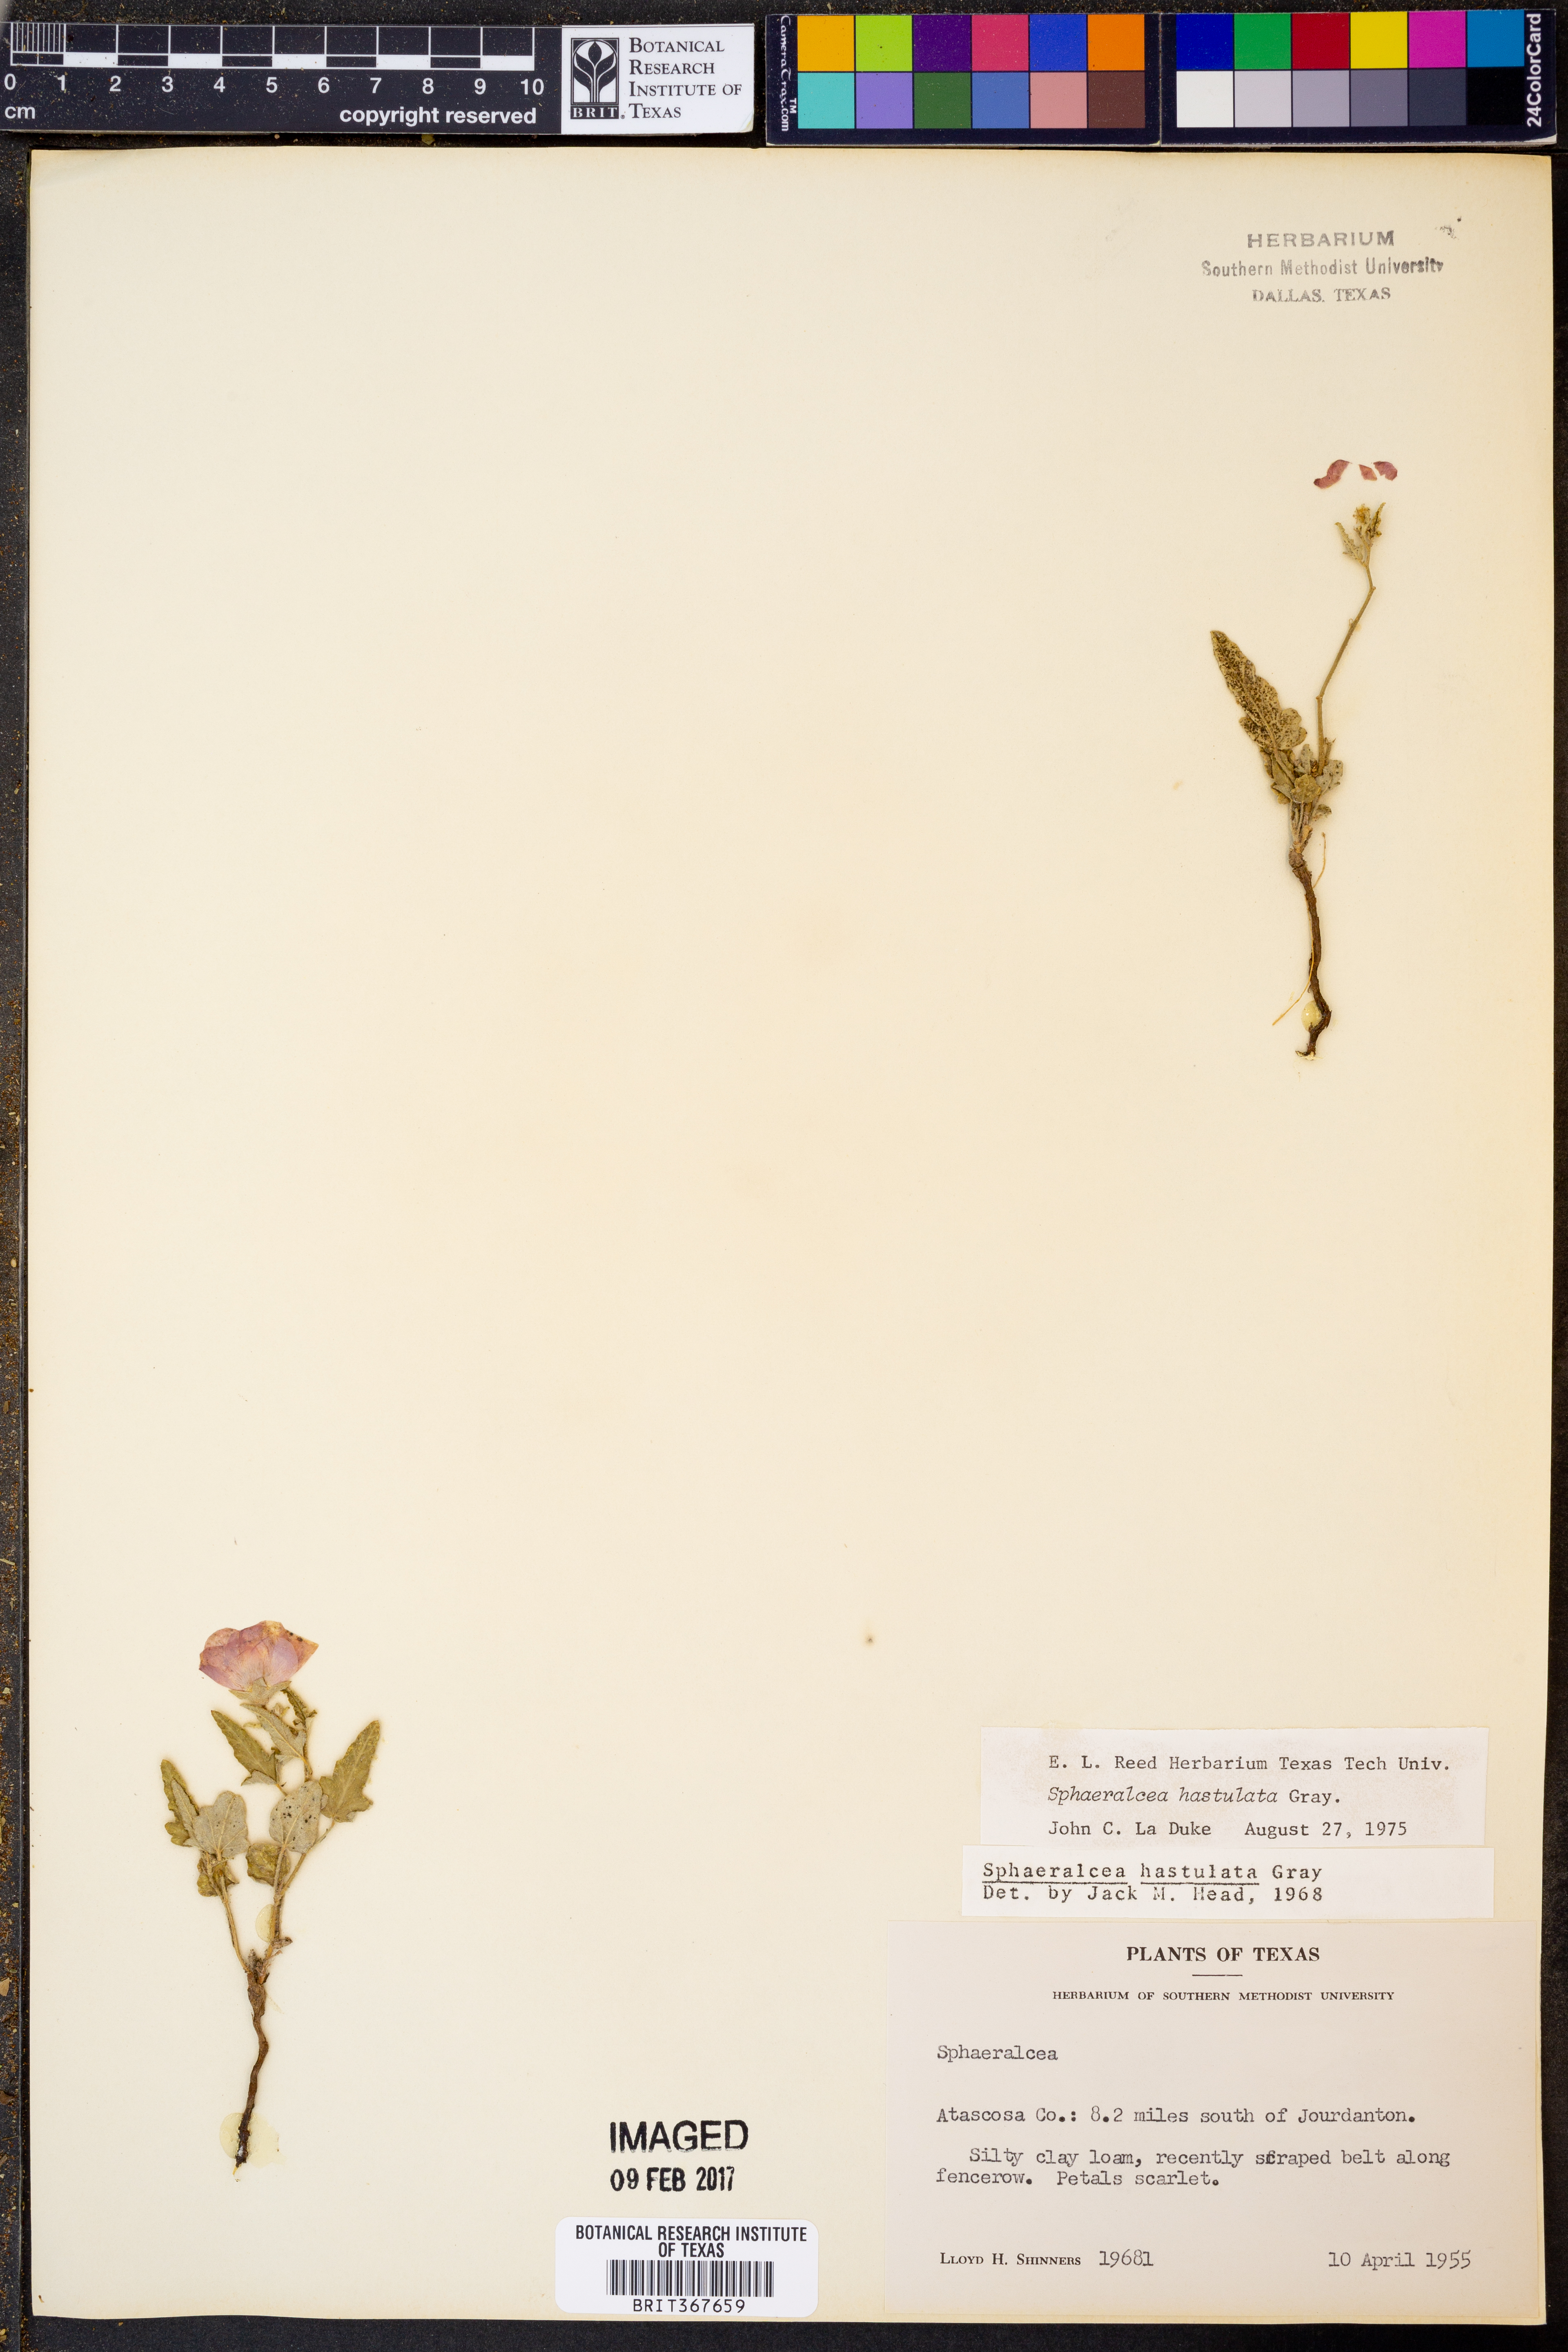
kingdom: Plantae
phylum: Tracheophyta
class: Magnoliopsida
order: Malvales
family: Malvaceae
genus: Sphaeralcea
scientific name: Sphaeralcea hastulata
